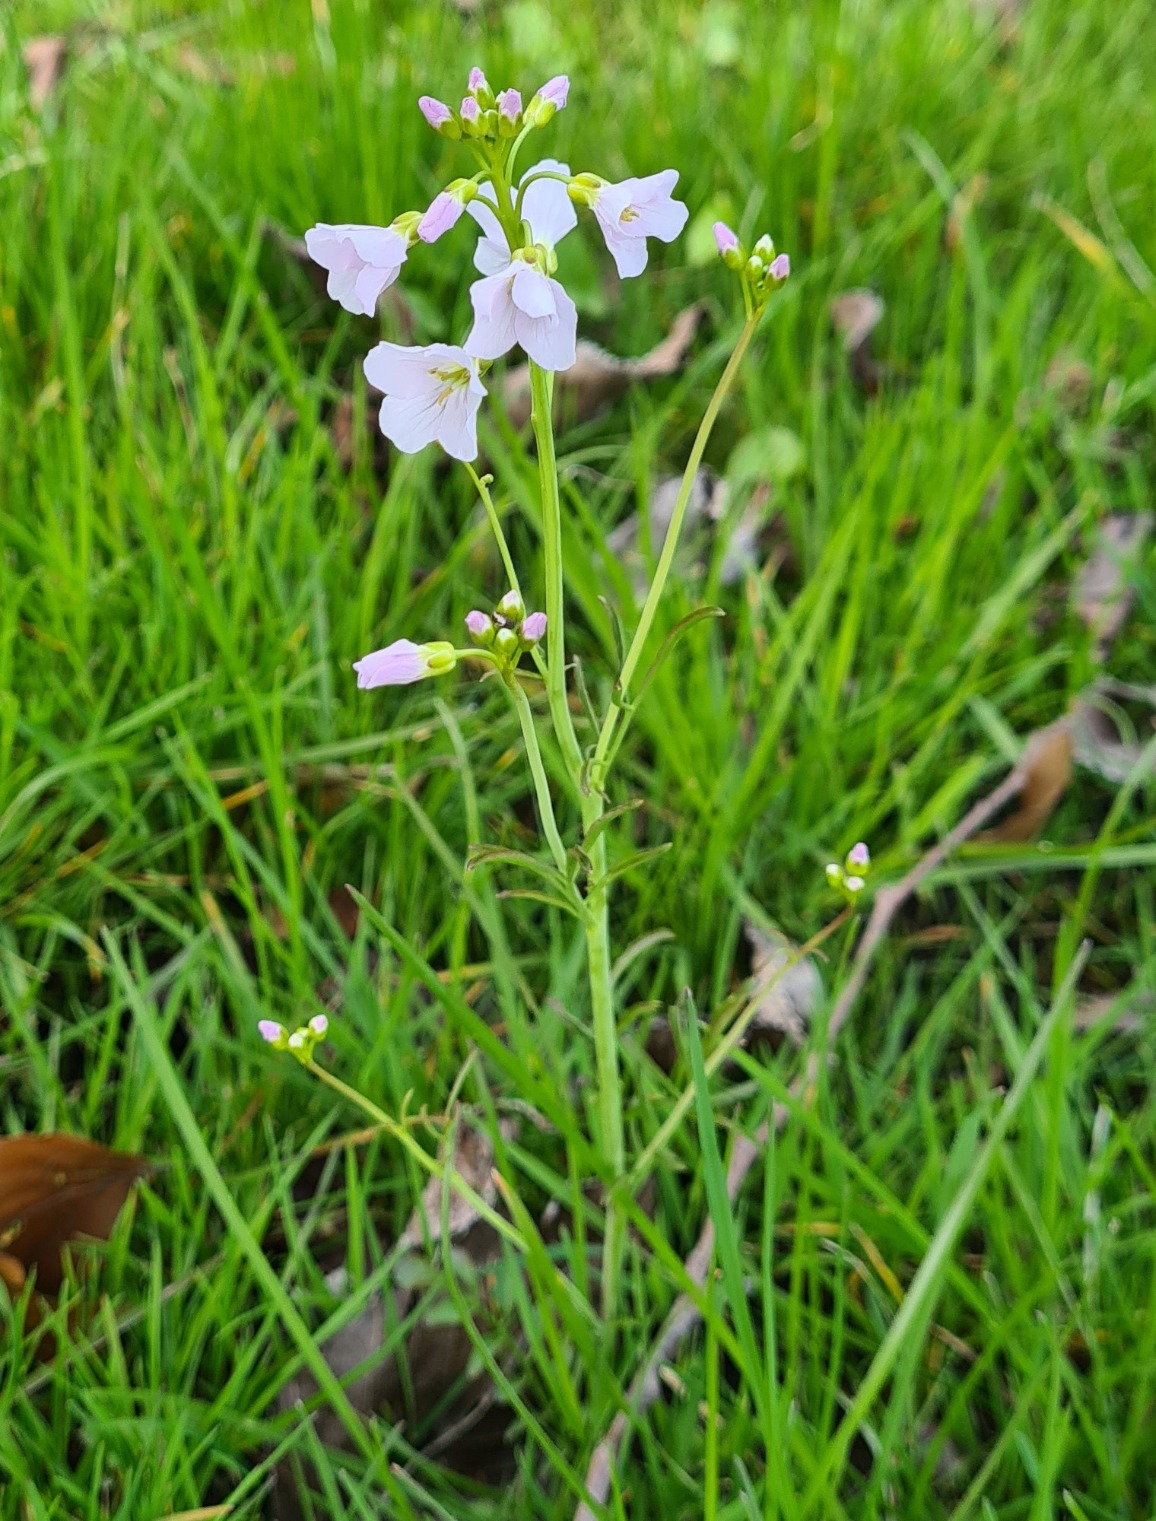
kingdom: Plantae
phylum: Tracheophyta
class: Magnoliopsida
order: Brassicales
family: Brassicaceae
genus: Cardamine
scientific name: Cardamine pratensis
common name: Engkarse
